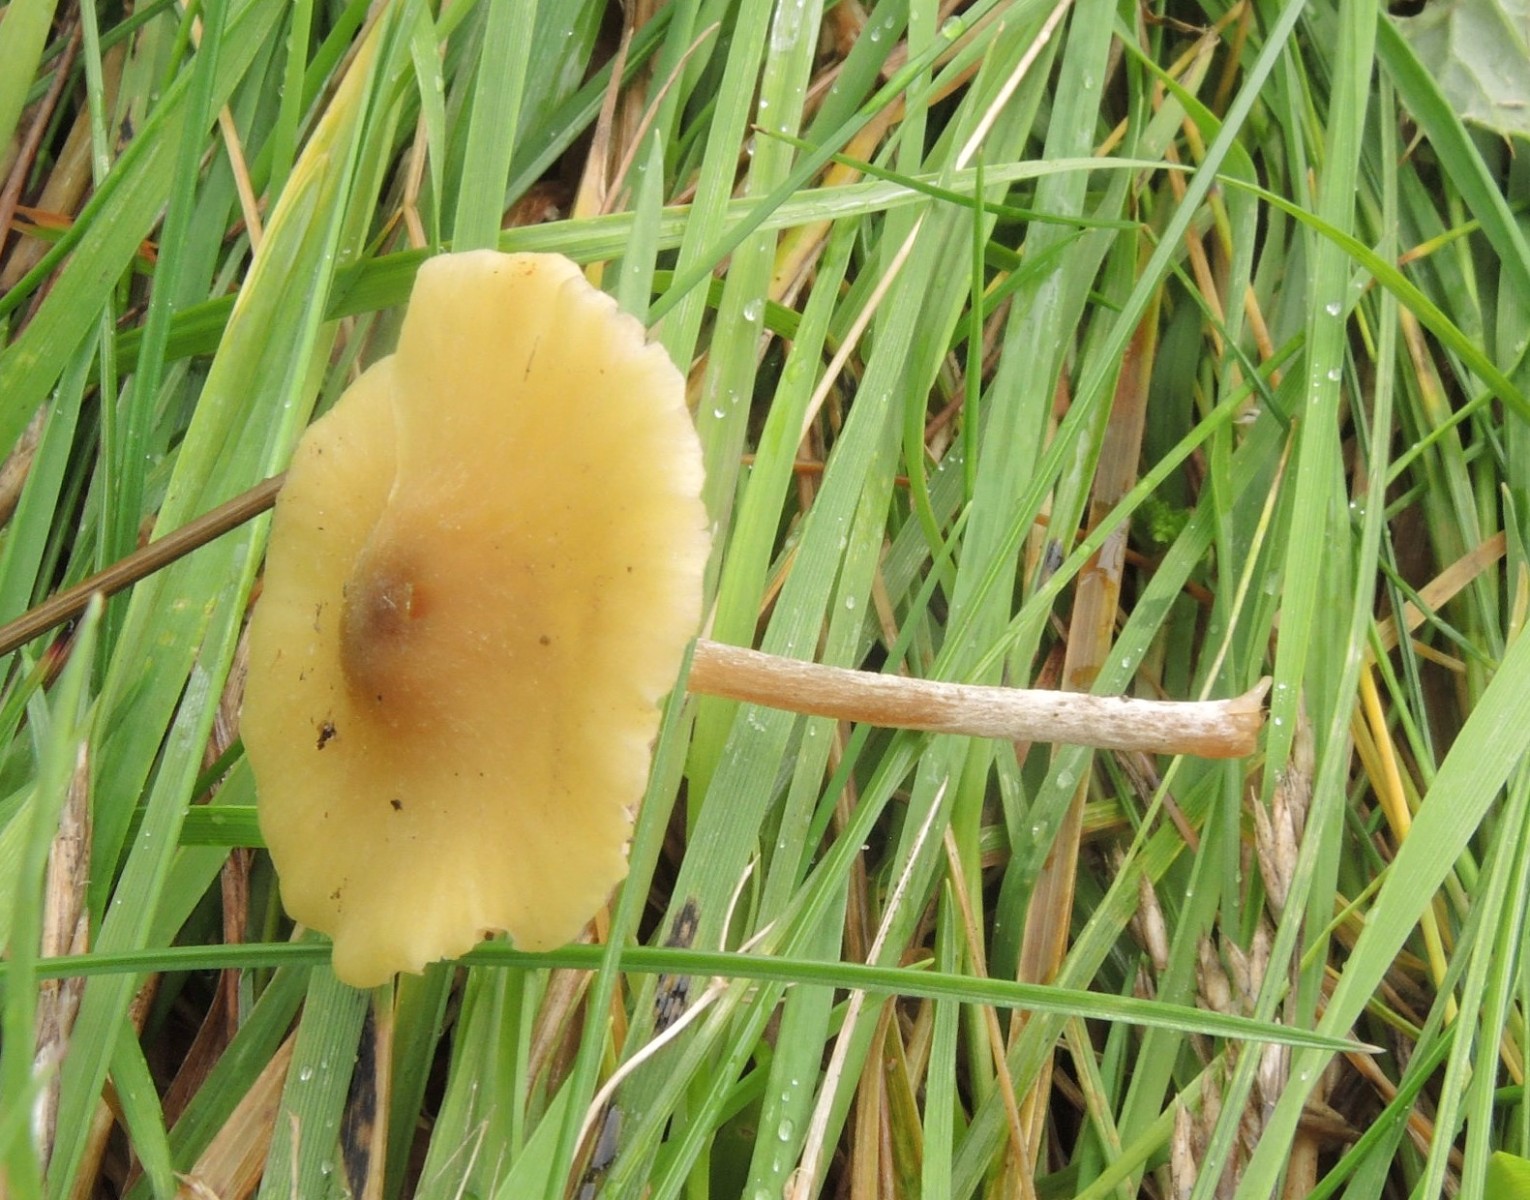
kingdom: Fungi
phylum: Basidiomycota
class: Agaricomycetes
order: Agaricales
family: Entolomataceae
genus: Entoloma
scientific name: Entoloma pleopodium
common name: duftende rødblad
